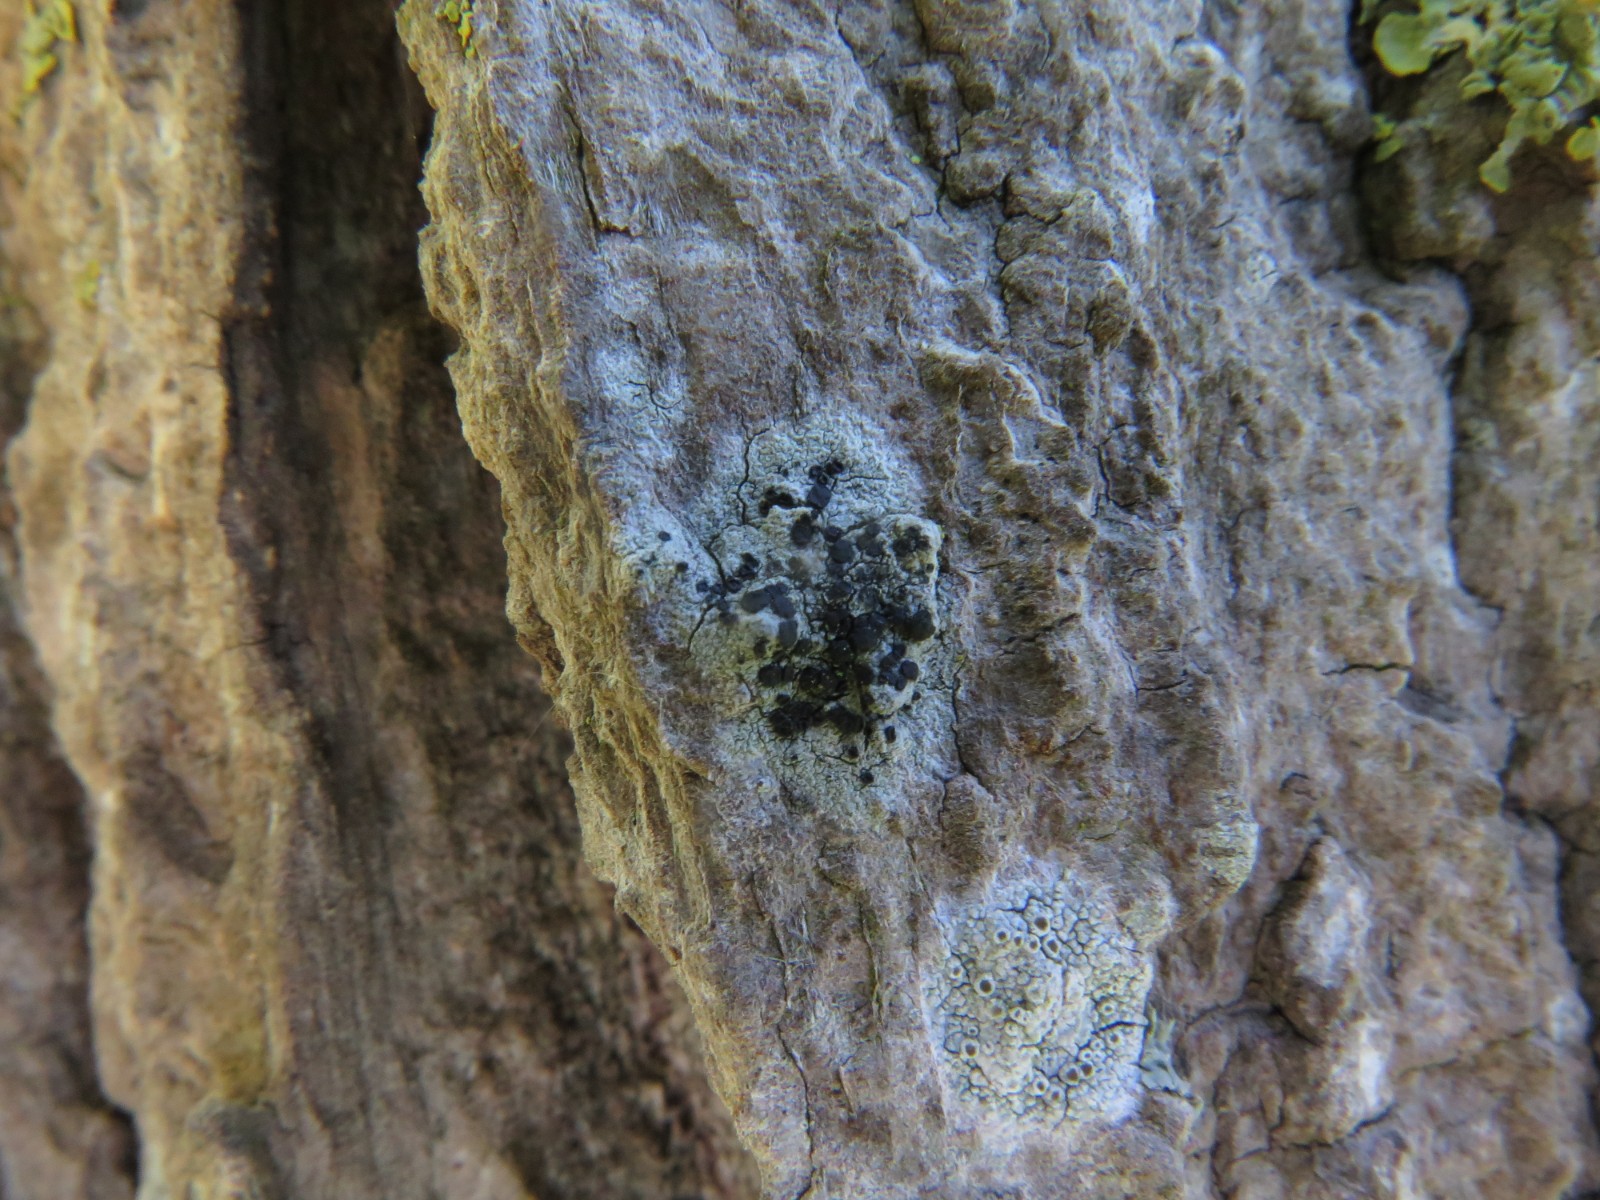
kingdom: Fungi
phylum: Ascomycota
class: Lecanoromycetes
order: Lecanorales
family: Lecanoraceae
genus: Lecidella
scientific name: Lecidella elaeochroma
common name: grågrøn skivelav
